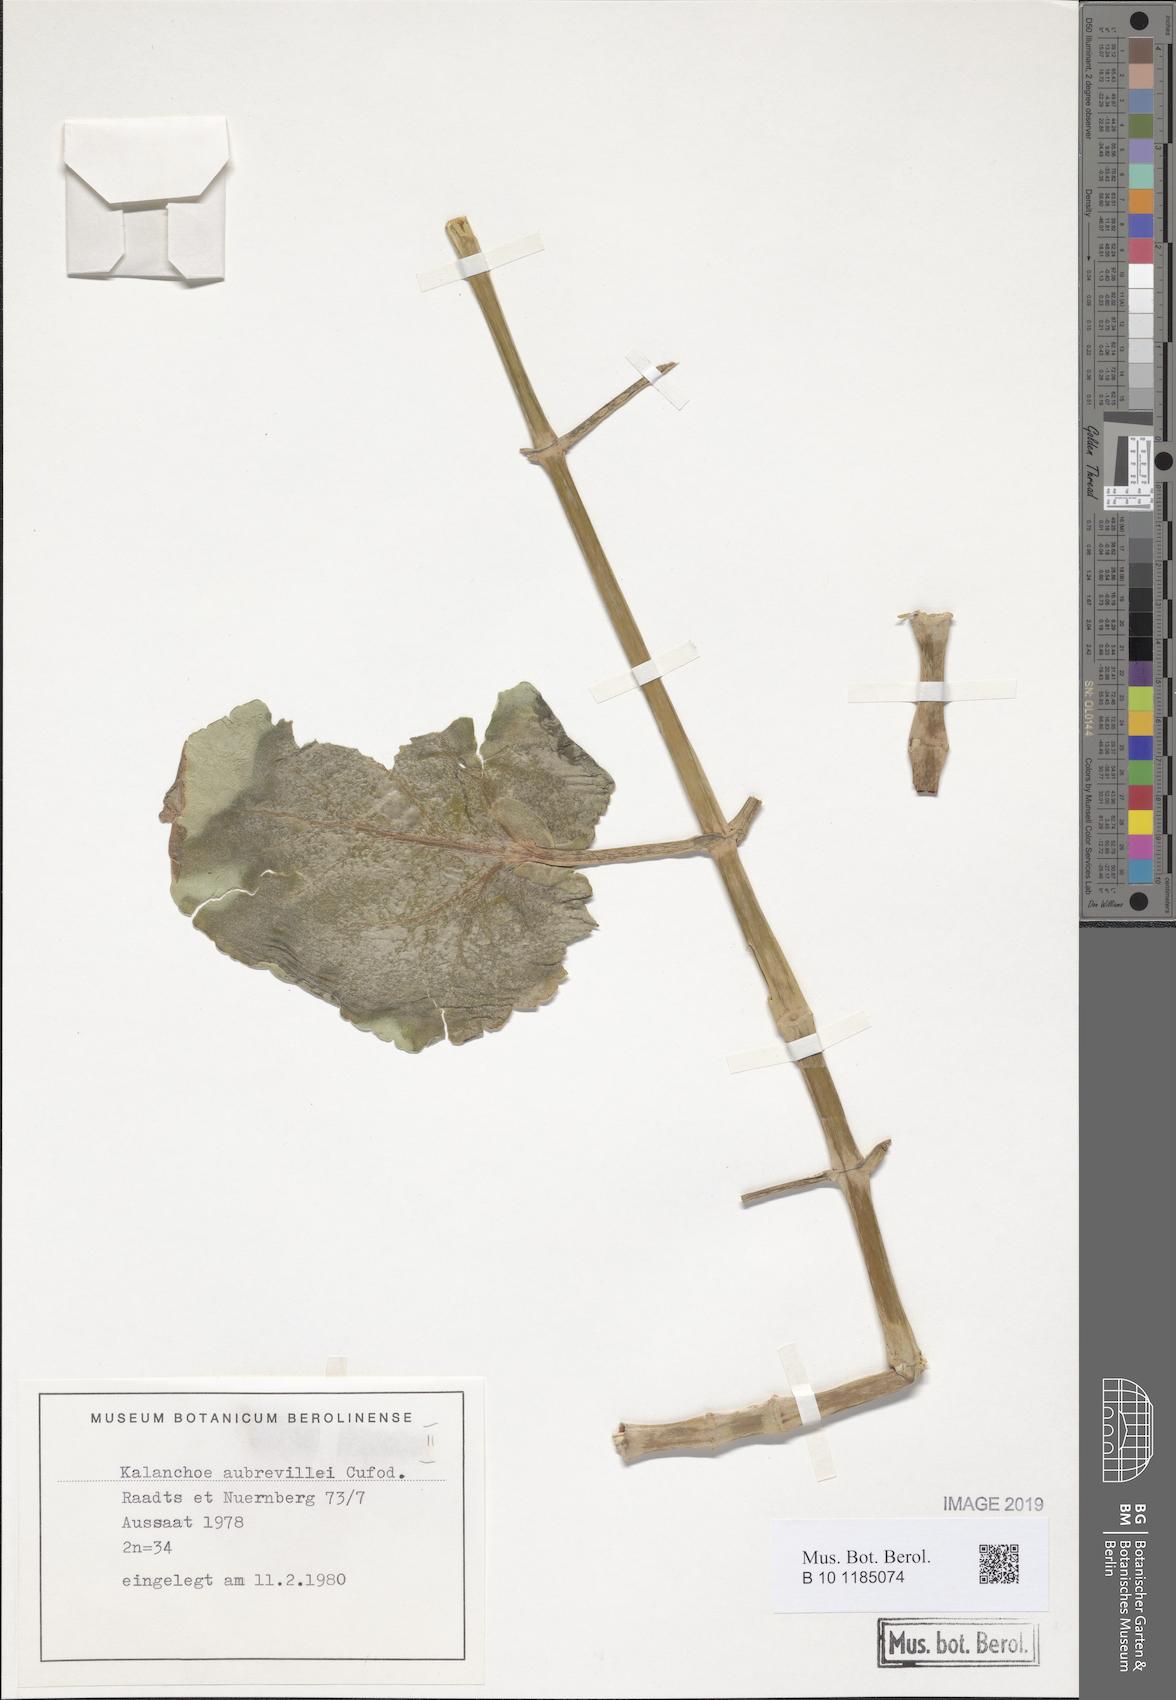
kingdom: Plantae
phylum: Tracheophyta
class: Magnoliopsida
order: Saxifragales
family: Crassulaceae
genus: Kalanchoe
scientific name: Kalanchoe aubrevillei
